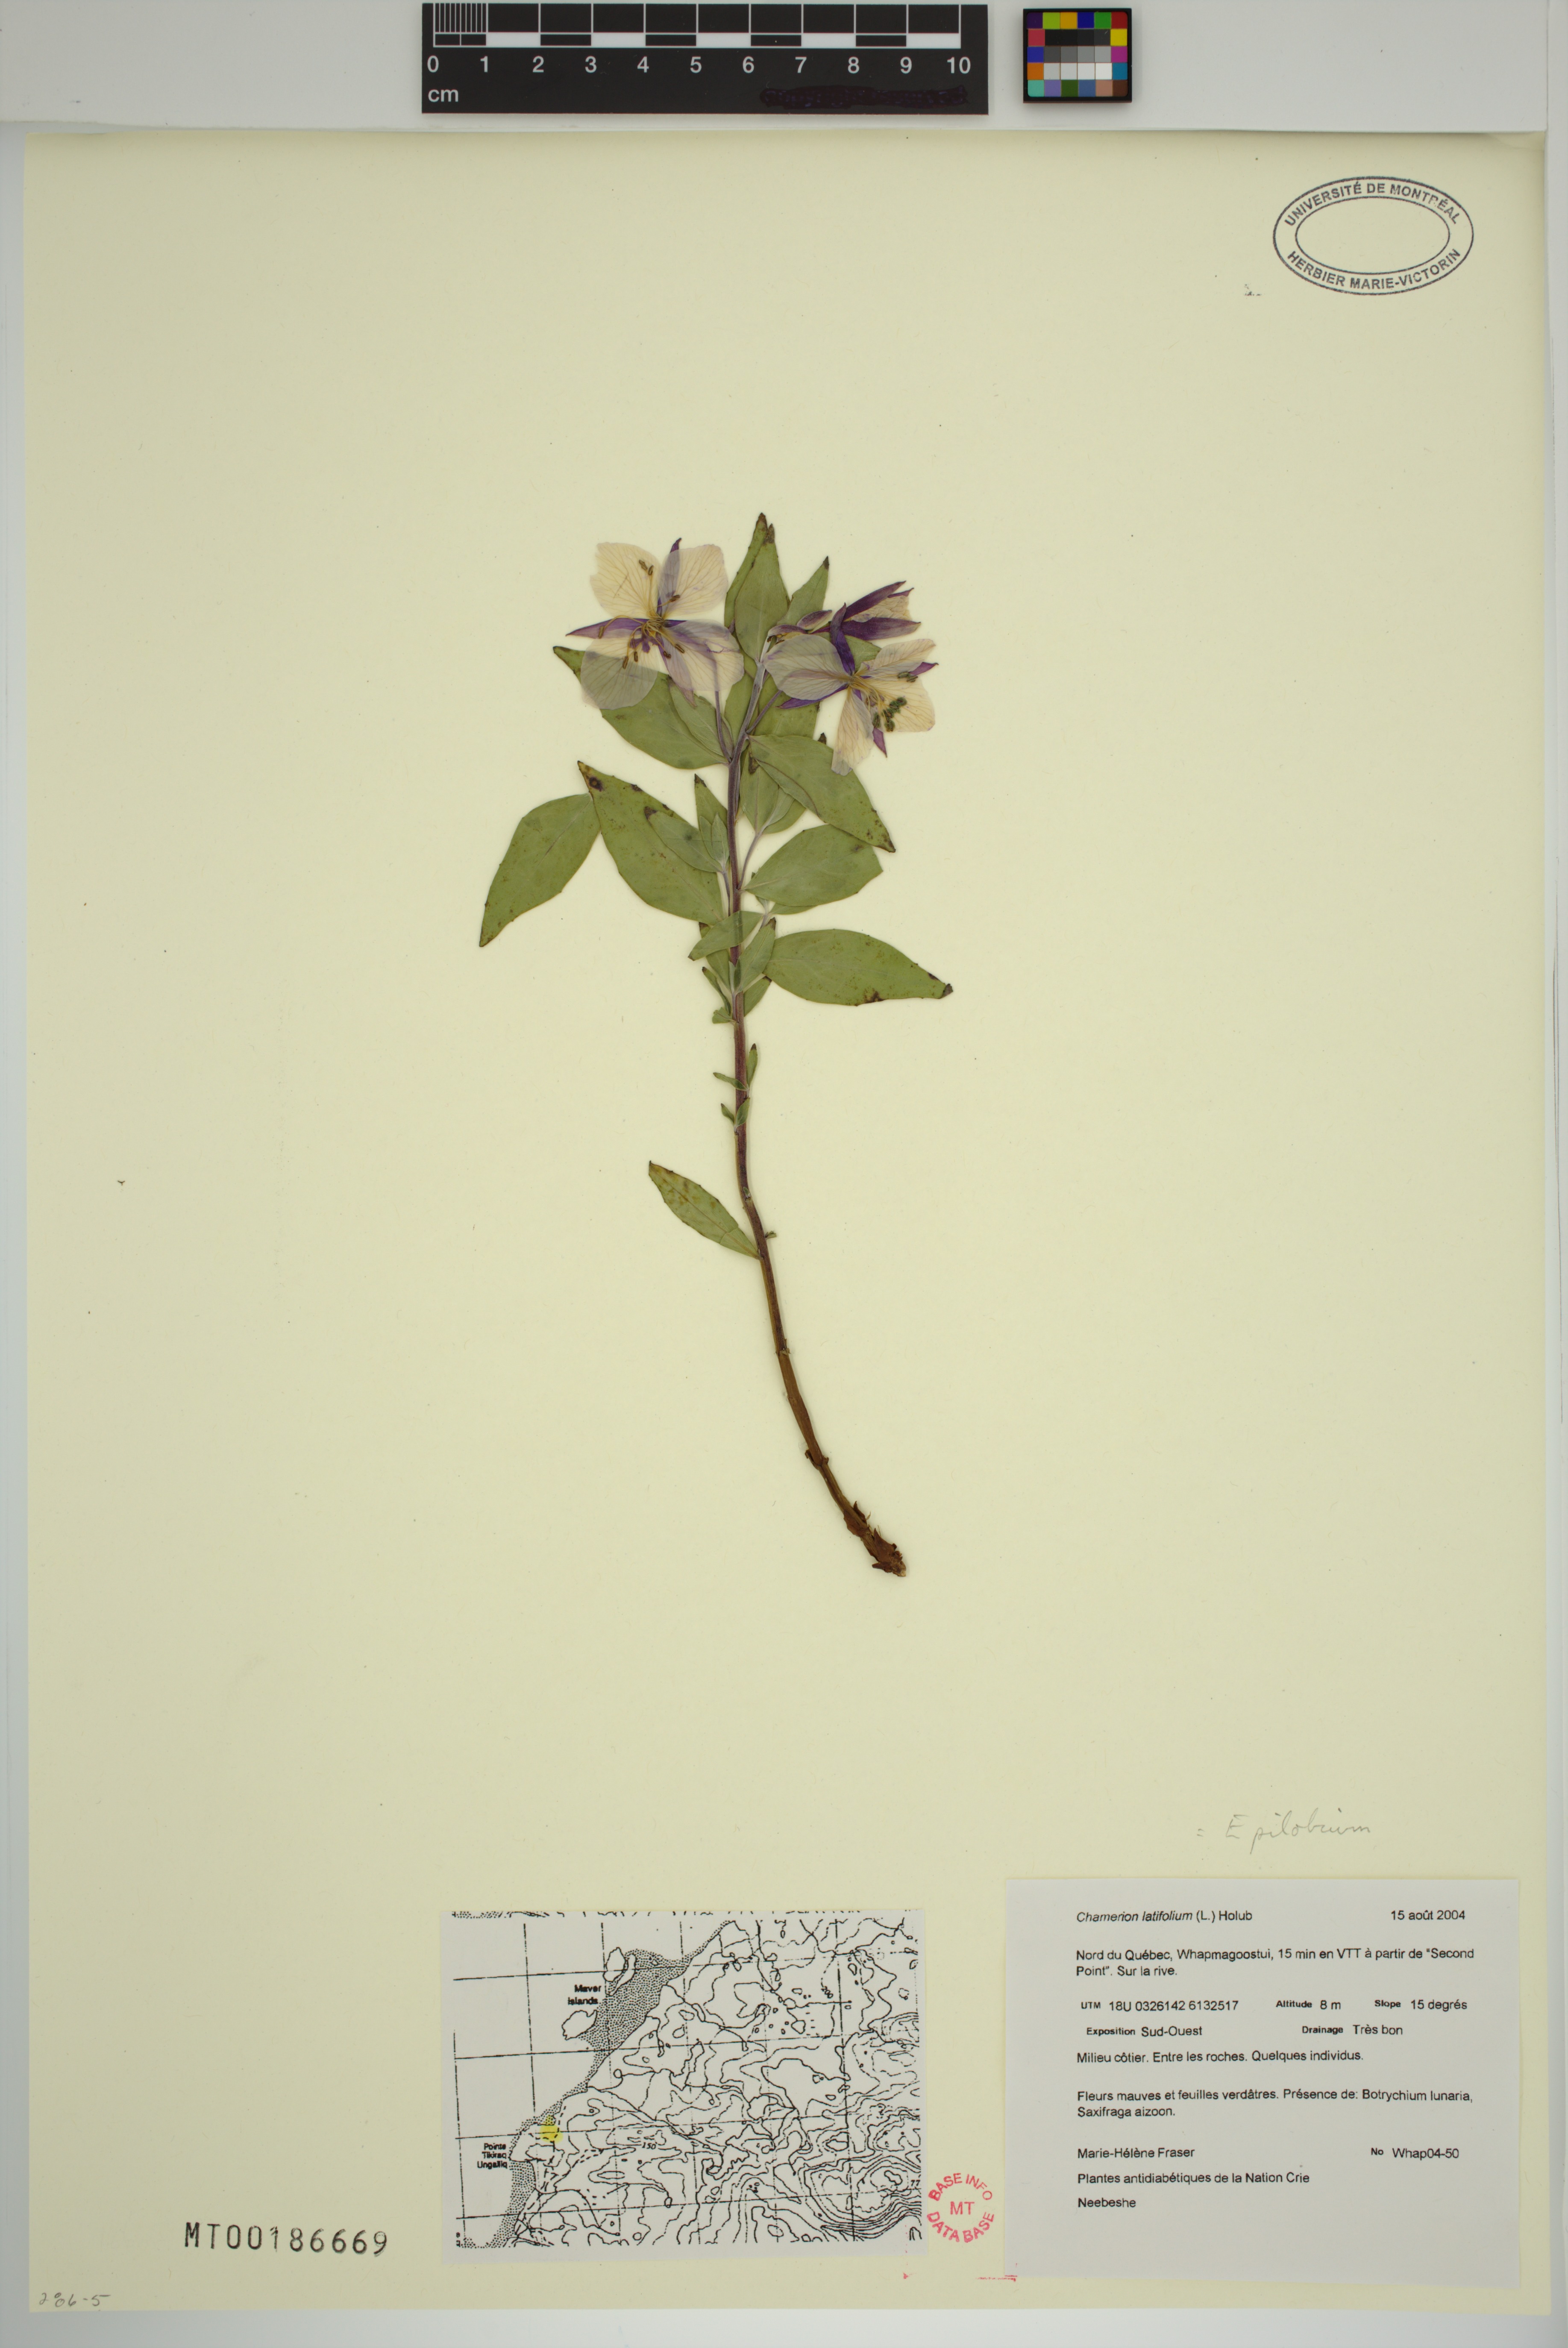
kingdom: Plantae
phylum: Tracheophyta
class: Magnoliopsida
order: Myrtales
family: Onagraceae
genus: Chamaenerion
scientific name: Chamaenerion latifolium
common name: Dwarf fireweed
